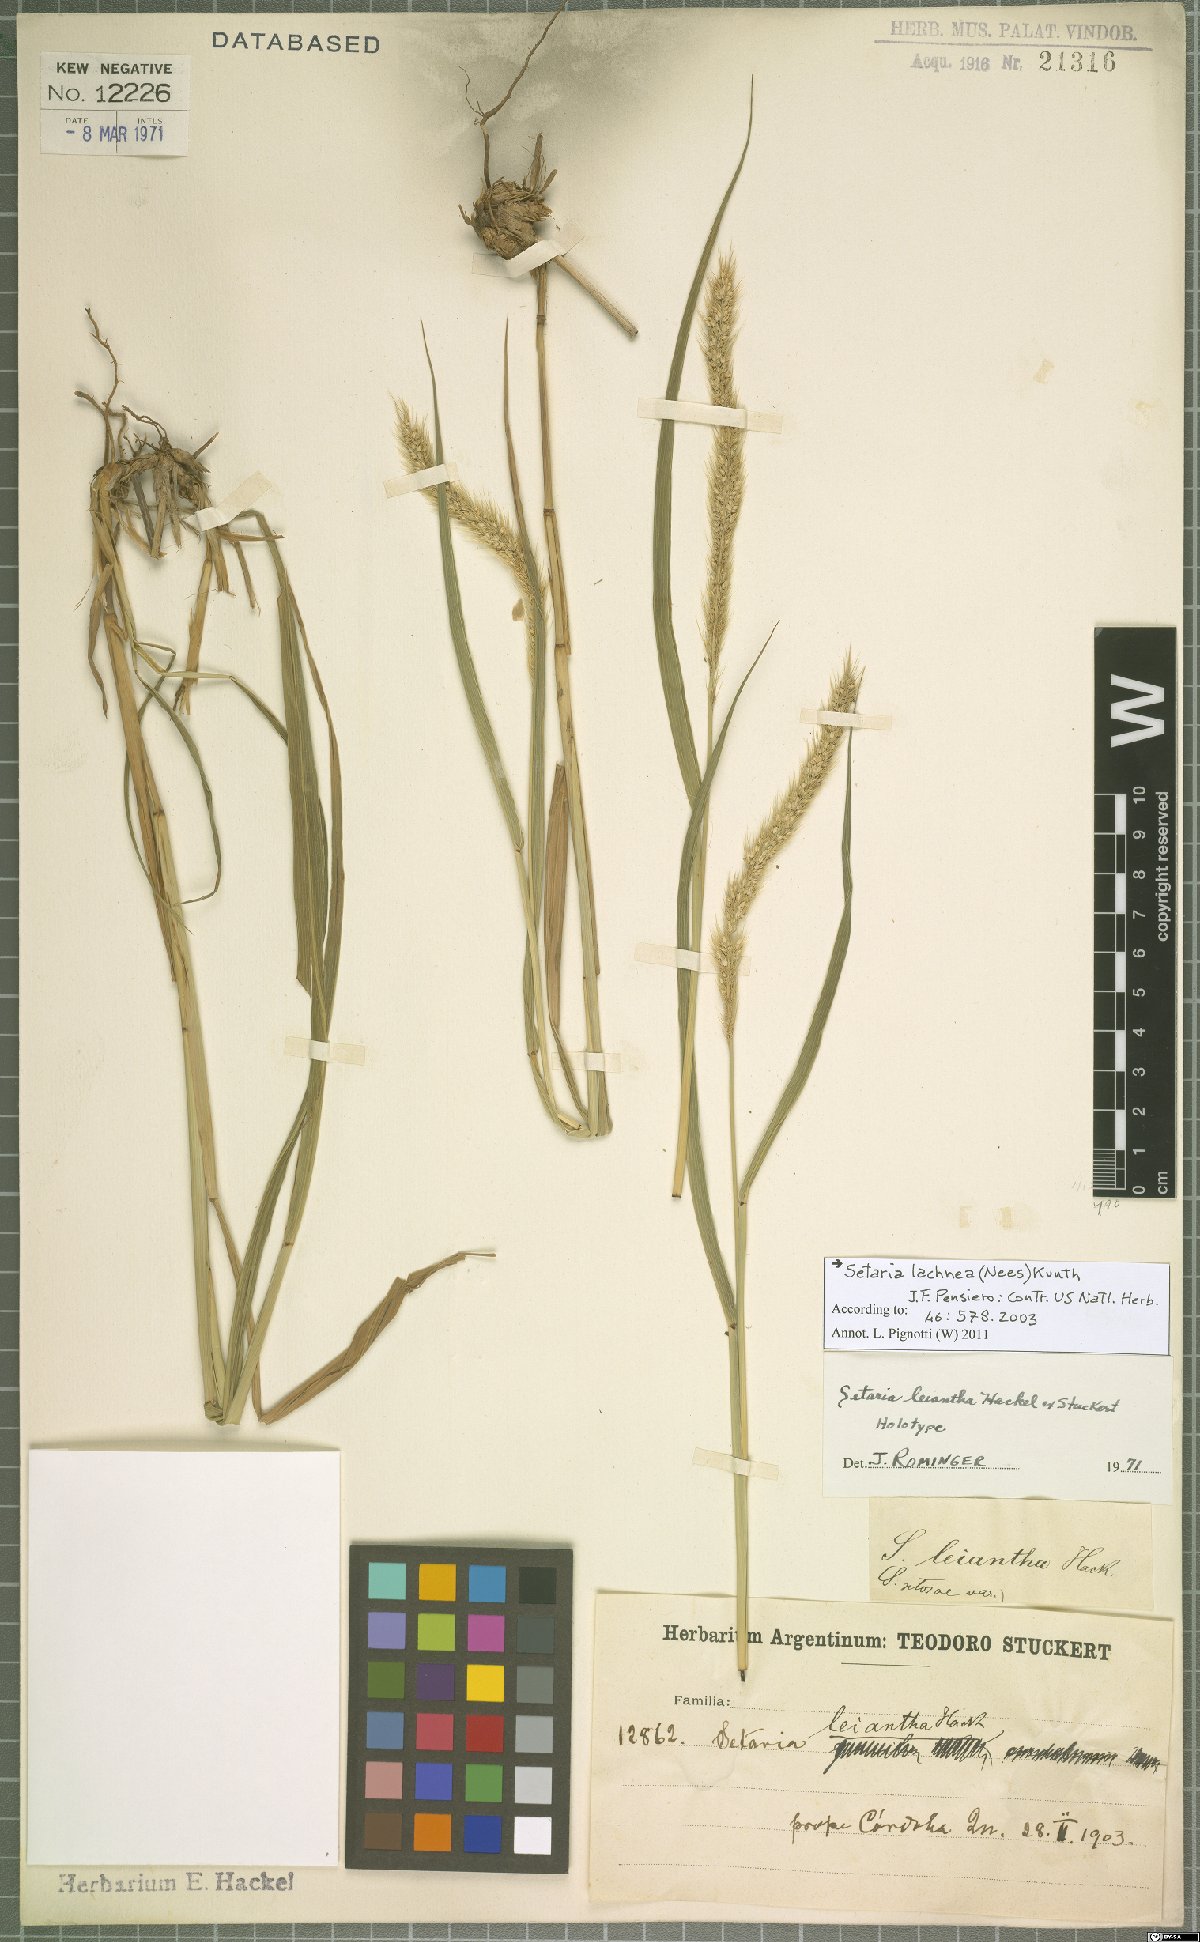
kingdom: Plantae
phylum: Tracheophyta
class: Liliopsida
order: Poales
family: Poaceae
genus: Setaria
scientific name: Setaria lachnea
